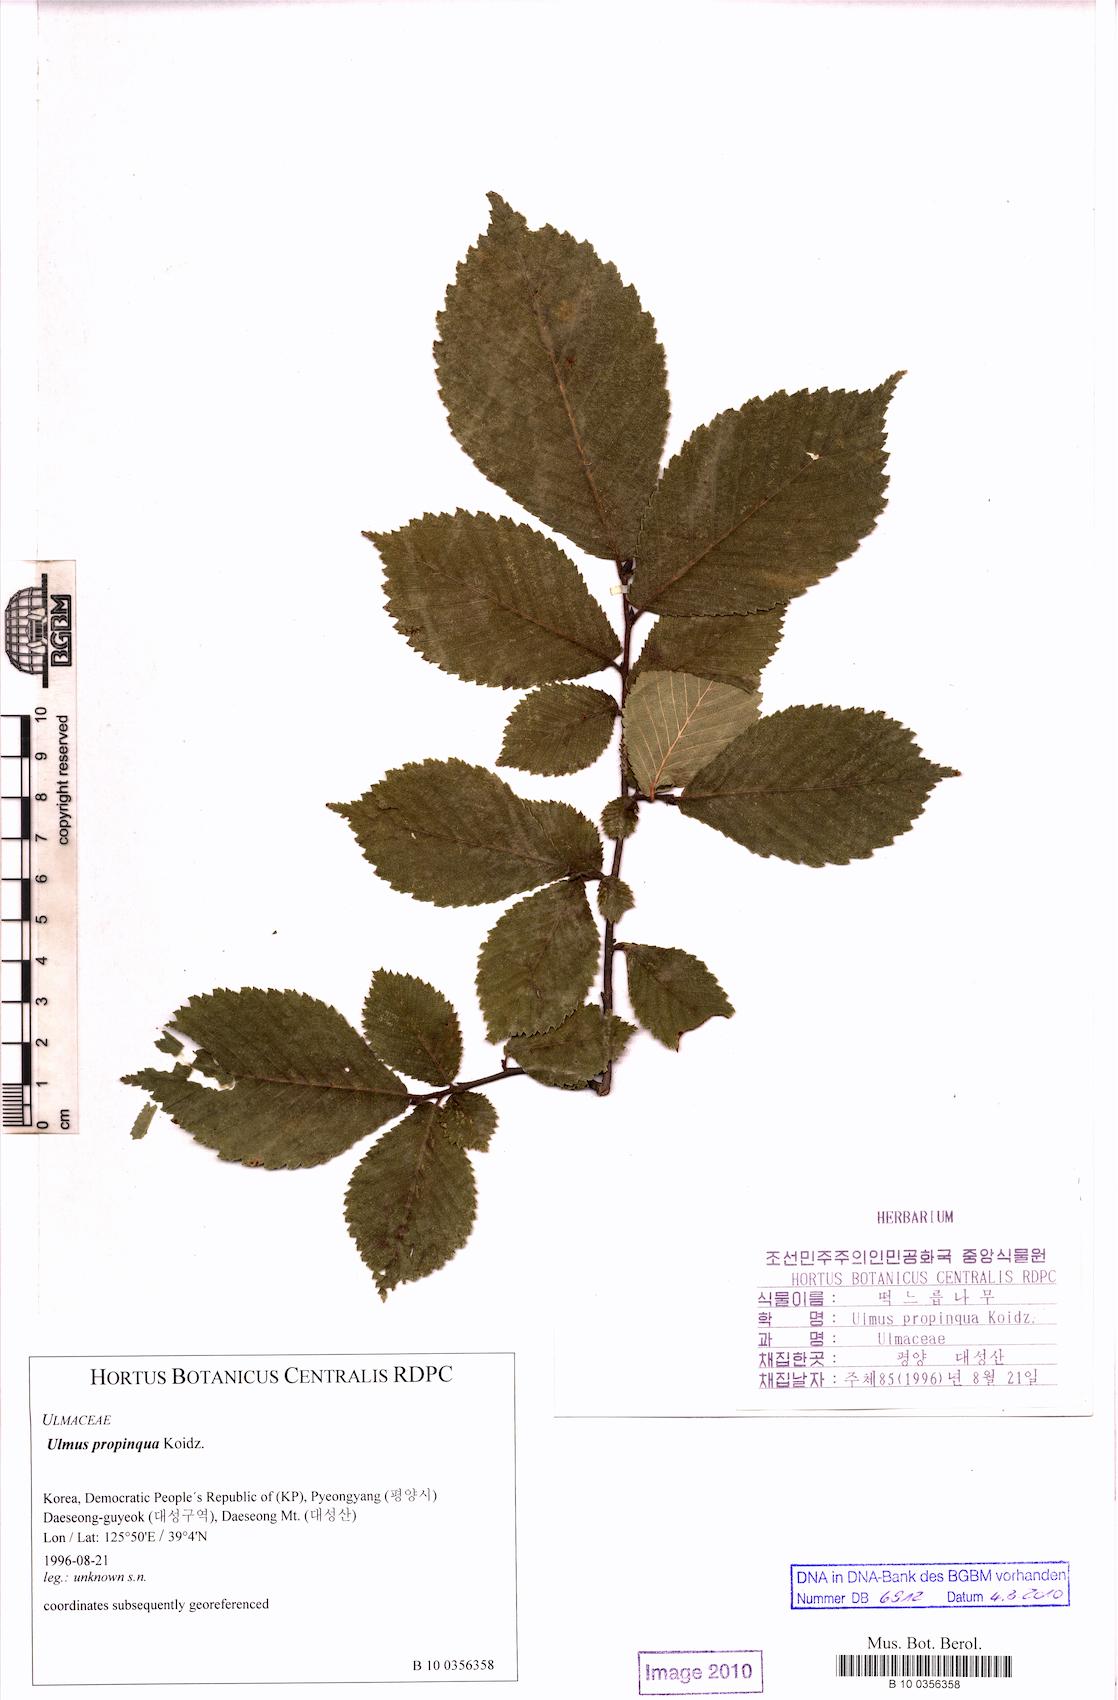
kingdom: Plantae
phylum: Tracheophyta
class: Magnoliopsida
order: Rosales
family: Ulmaceae
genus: Ulmus
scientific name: Ulmus davidiana
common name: Japanese elm
